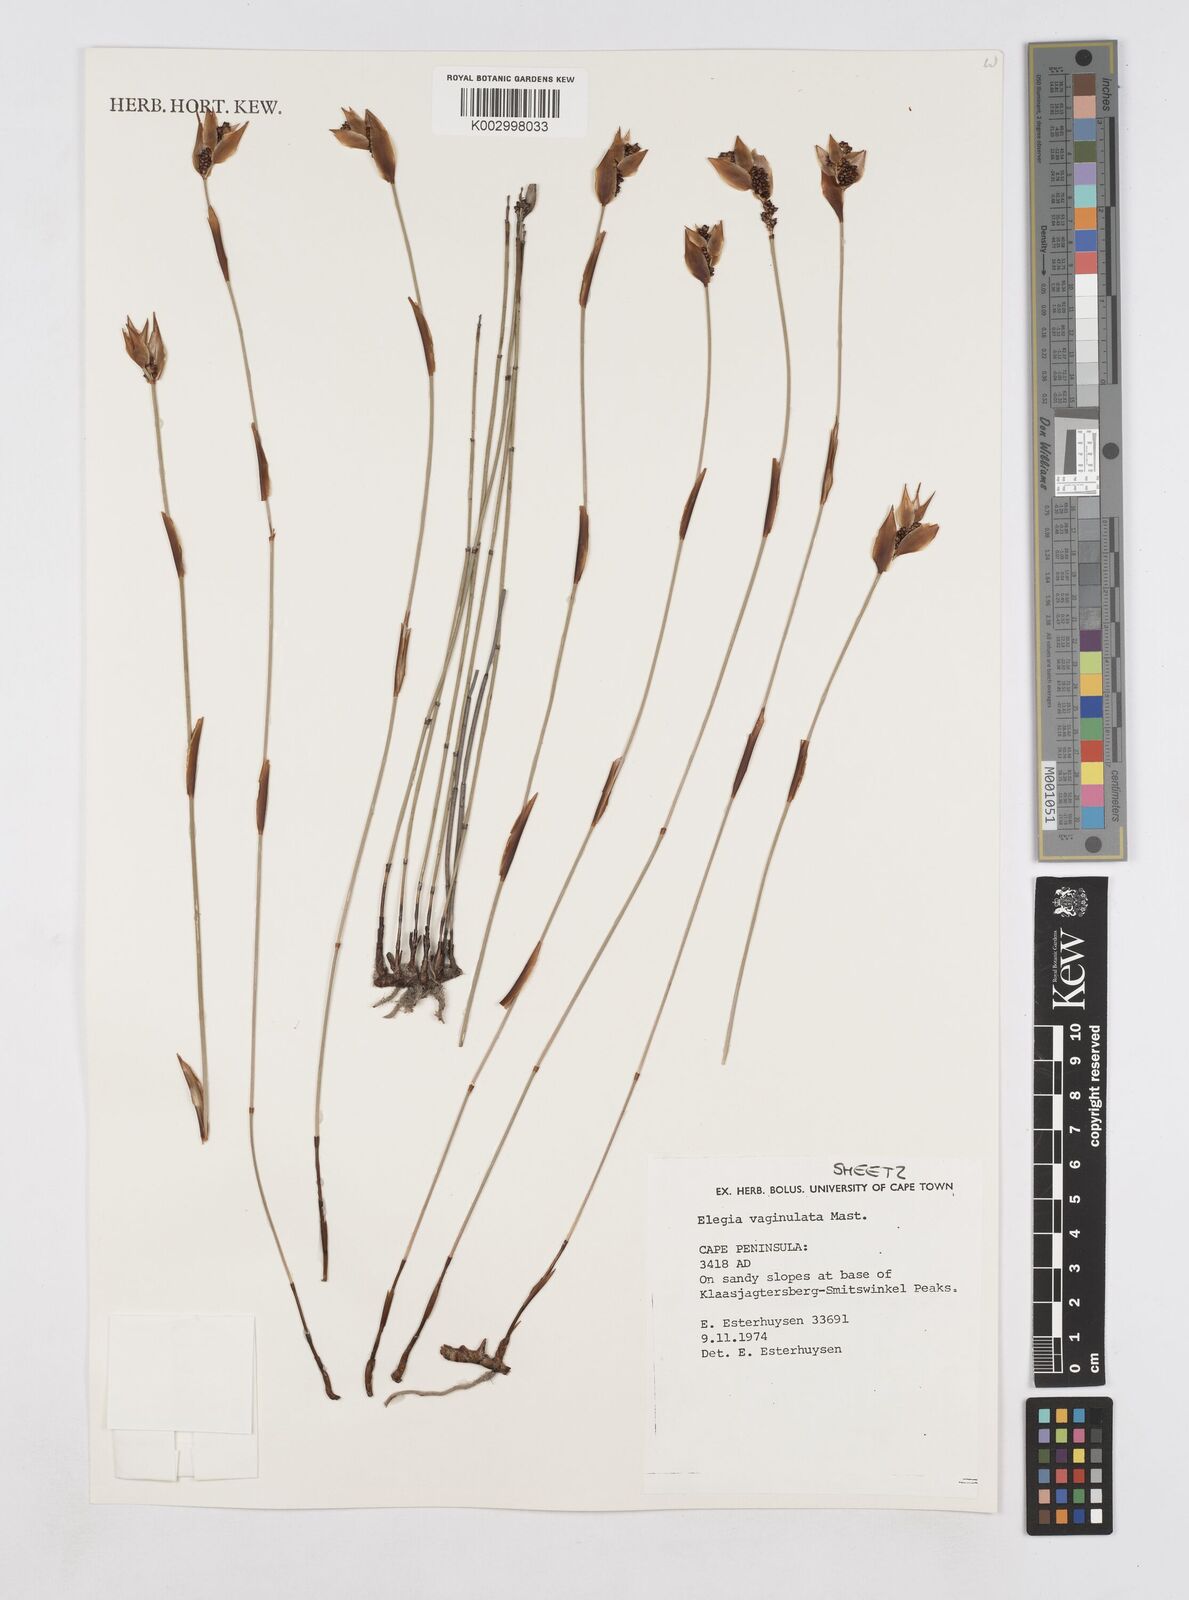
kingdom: Plantae
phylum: Tracheophyta
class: Liliopsida
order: Poales
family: Restionaceae
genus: Elegia
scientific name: Elegia vaginulata
